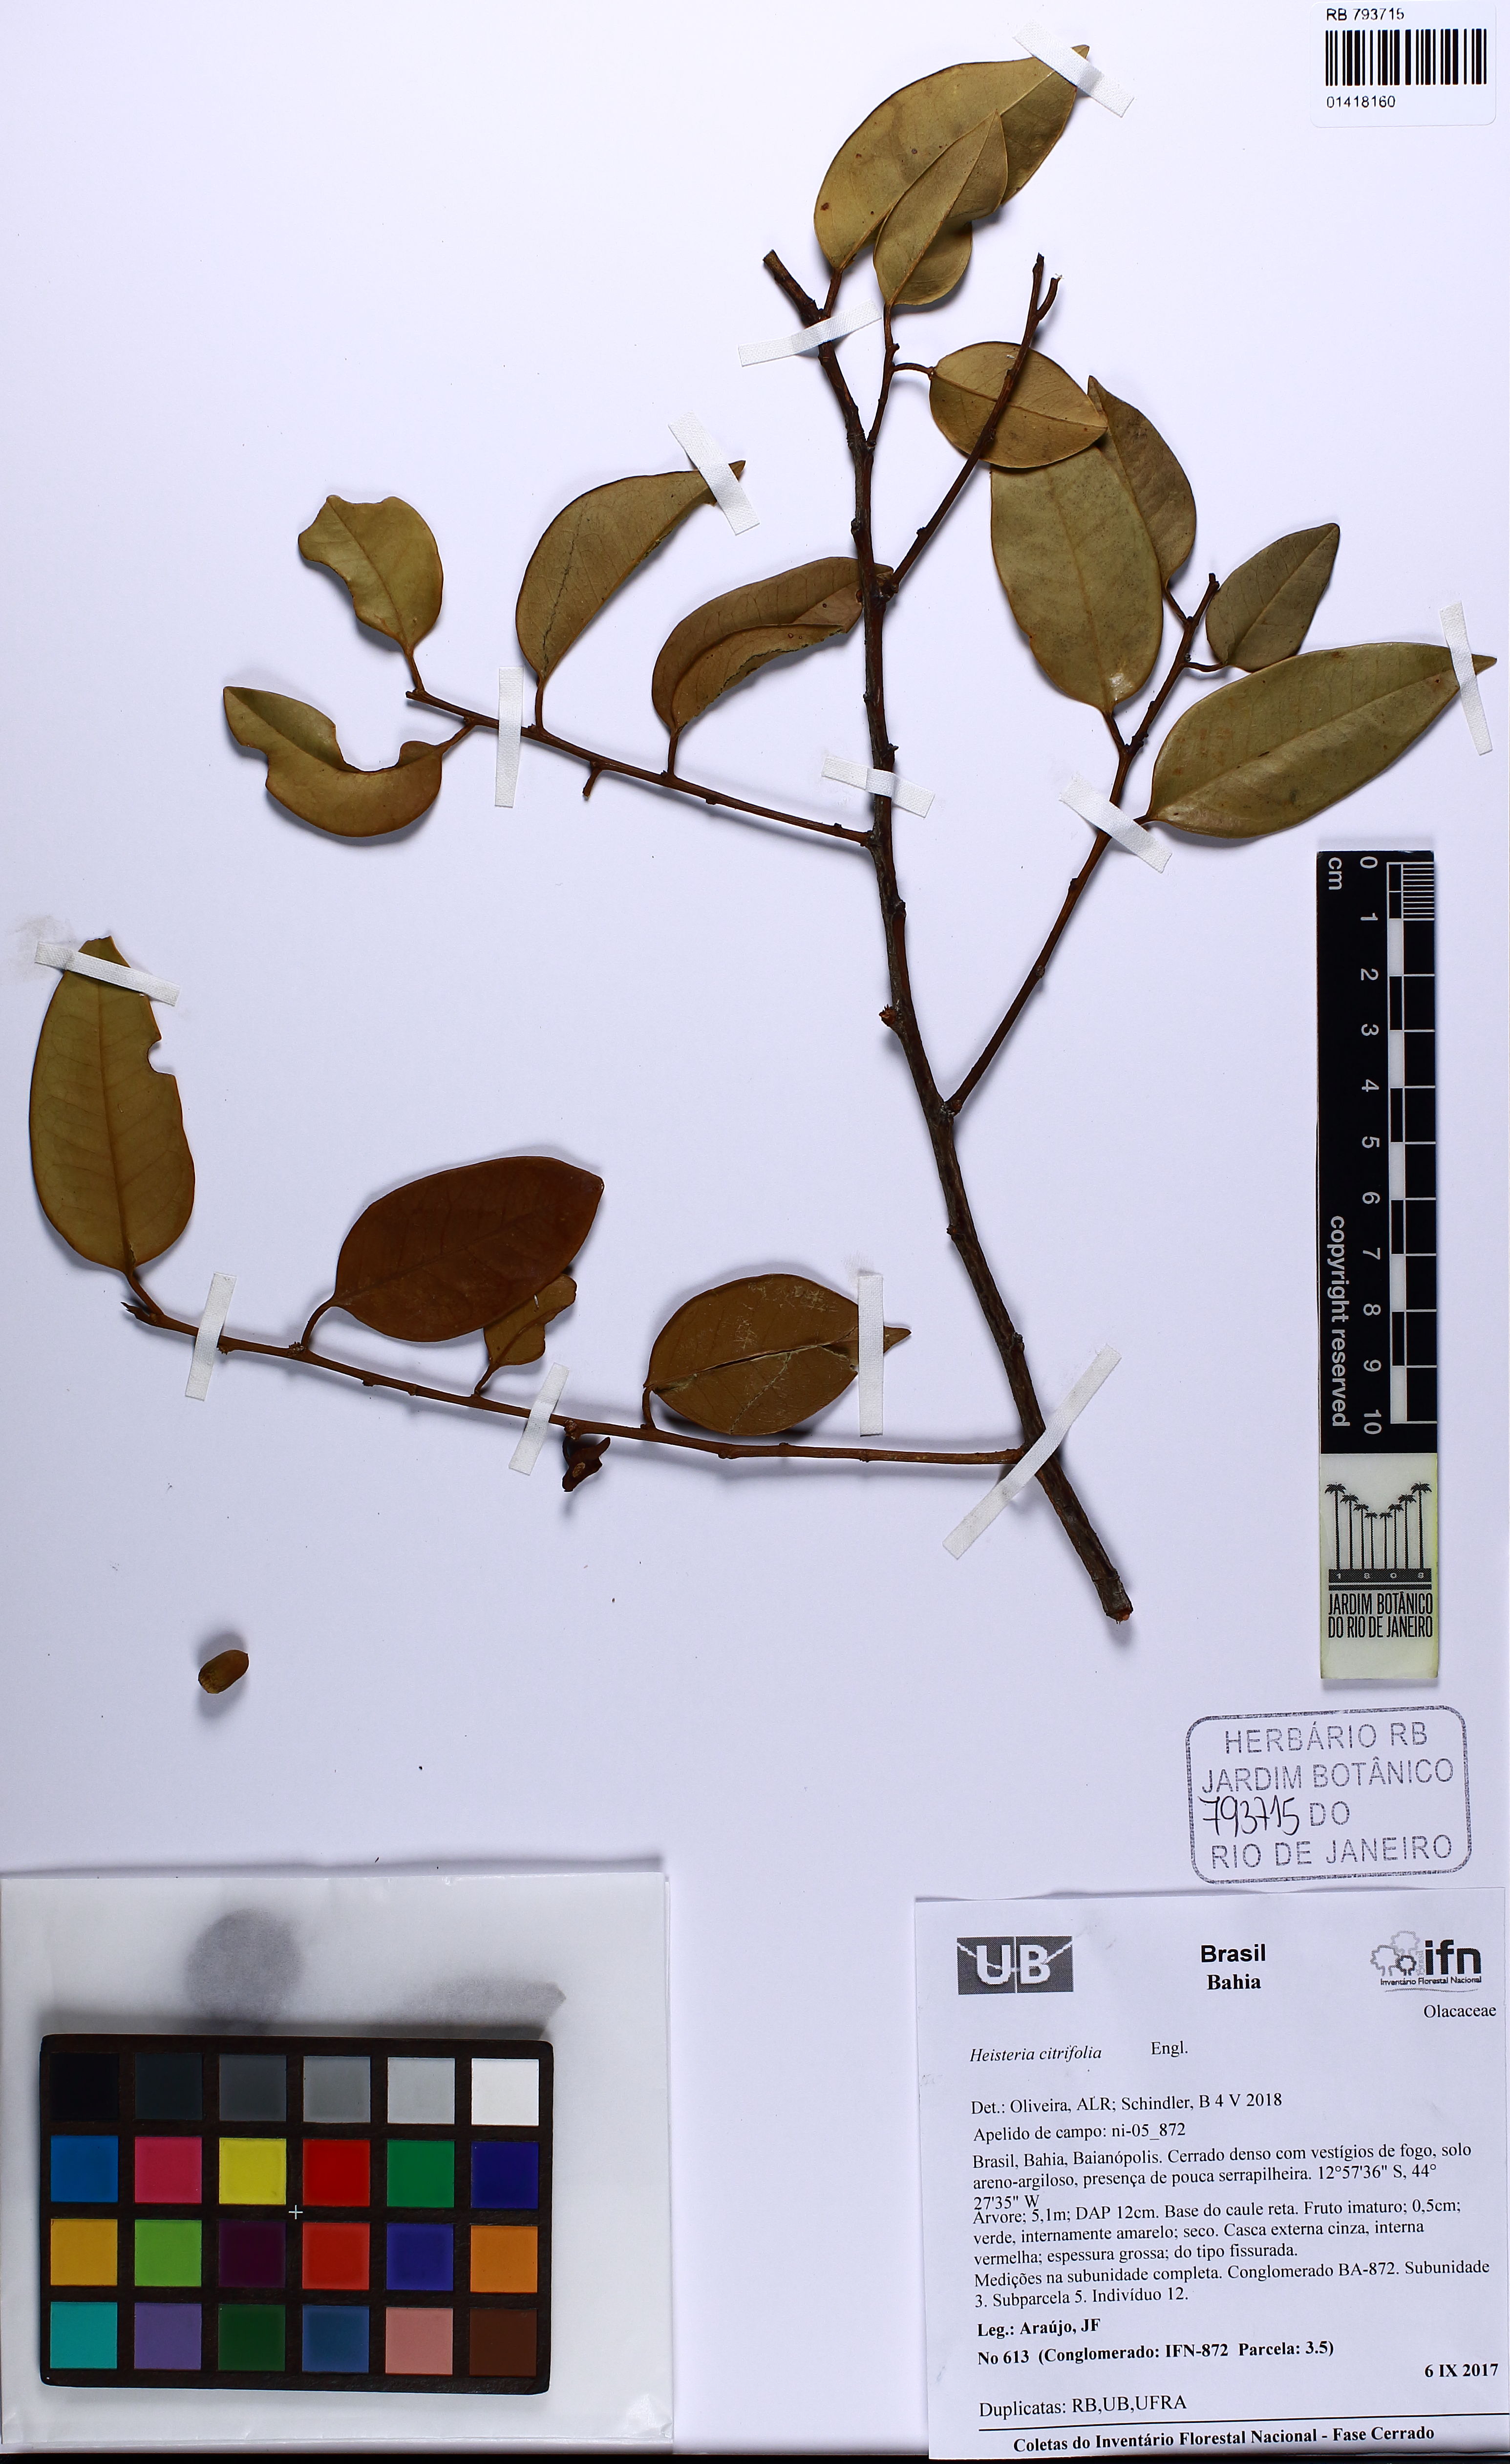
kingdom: Plantae
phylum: Tracheophyta
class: Magnoliopsida
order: Santalales
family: Erythropalaceae
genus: Heisteria
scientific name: Heisteria citrifolia
